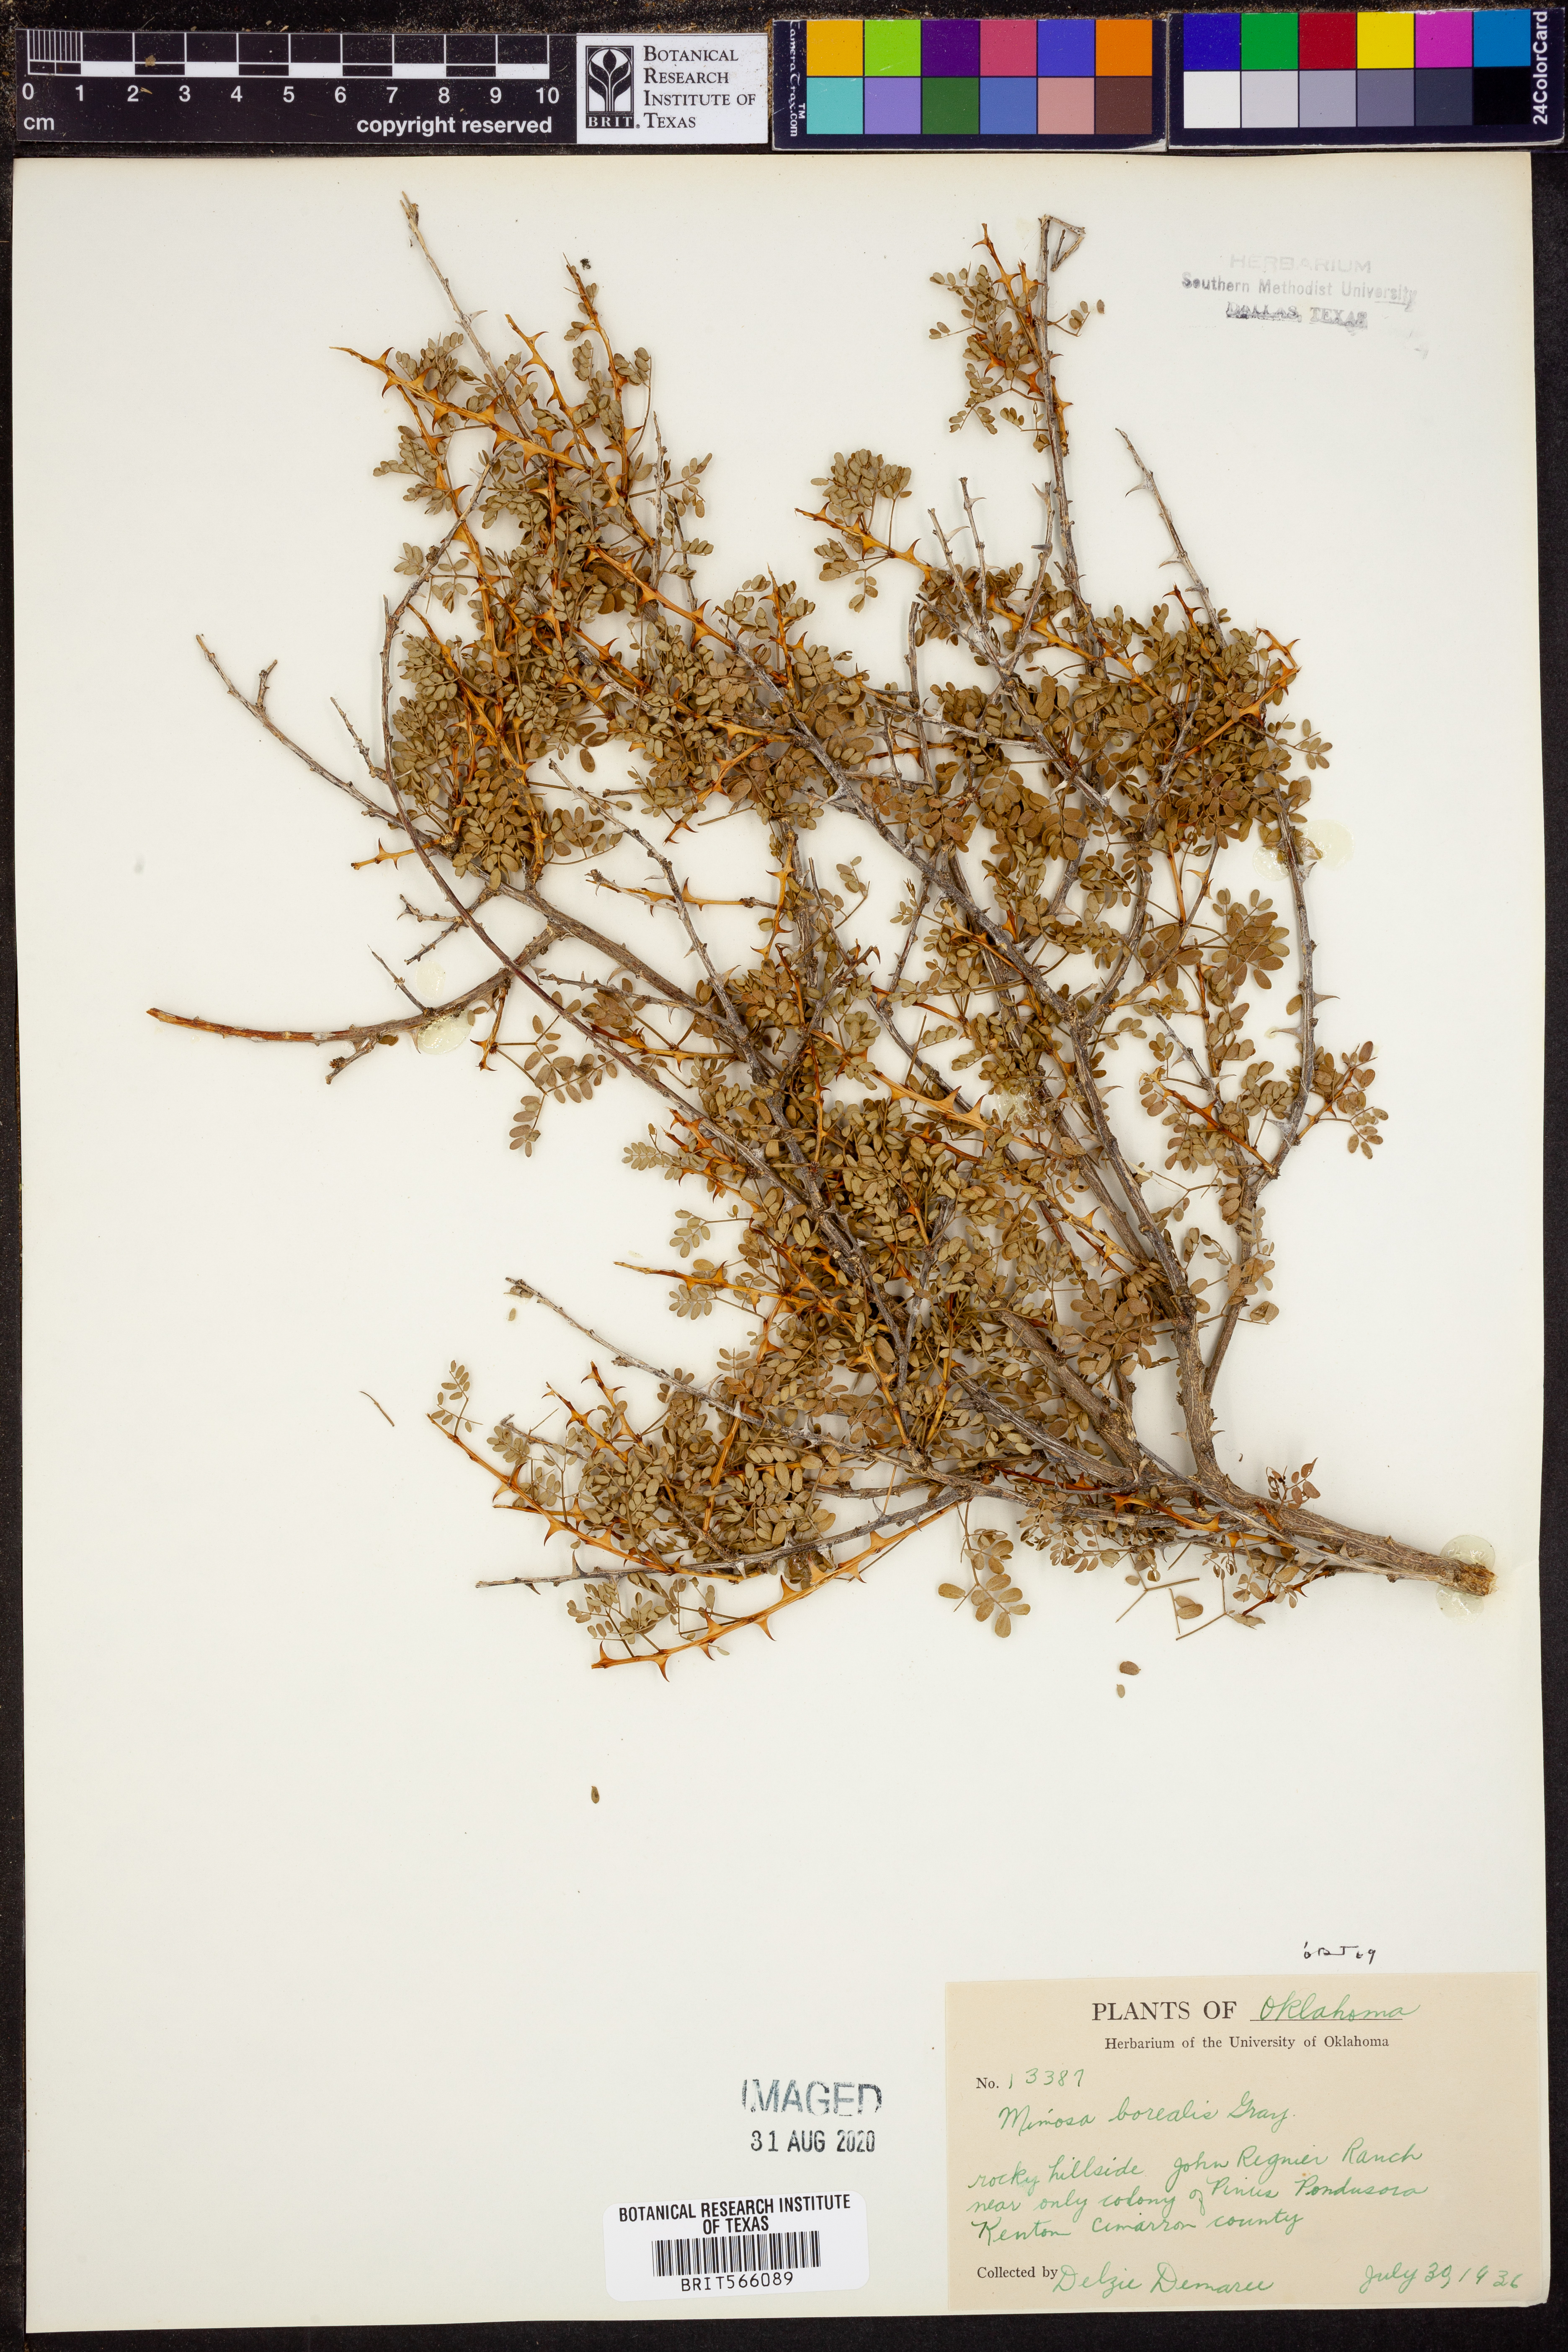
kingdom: Plantae
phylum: Tracheophyta
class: Magnoliopsida
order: Fabales
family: Fabaceae
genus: Mimosa
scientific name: Mimosa borealis
